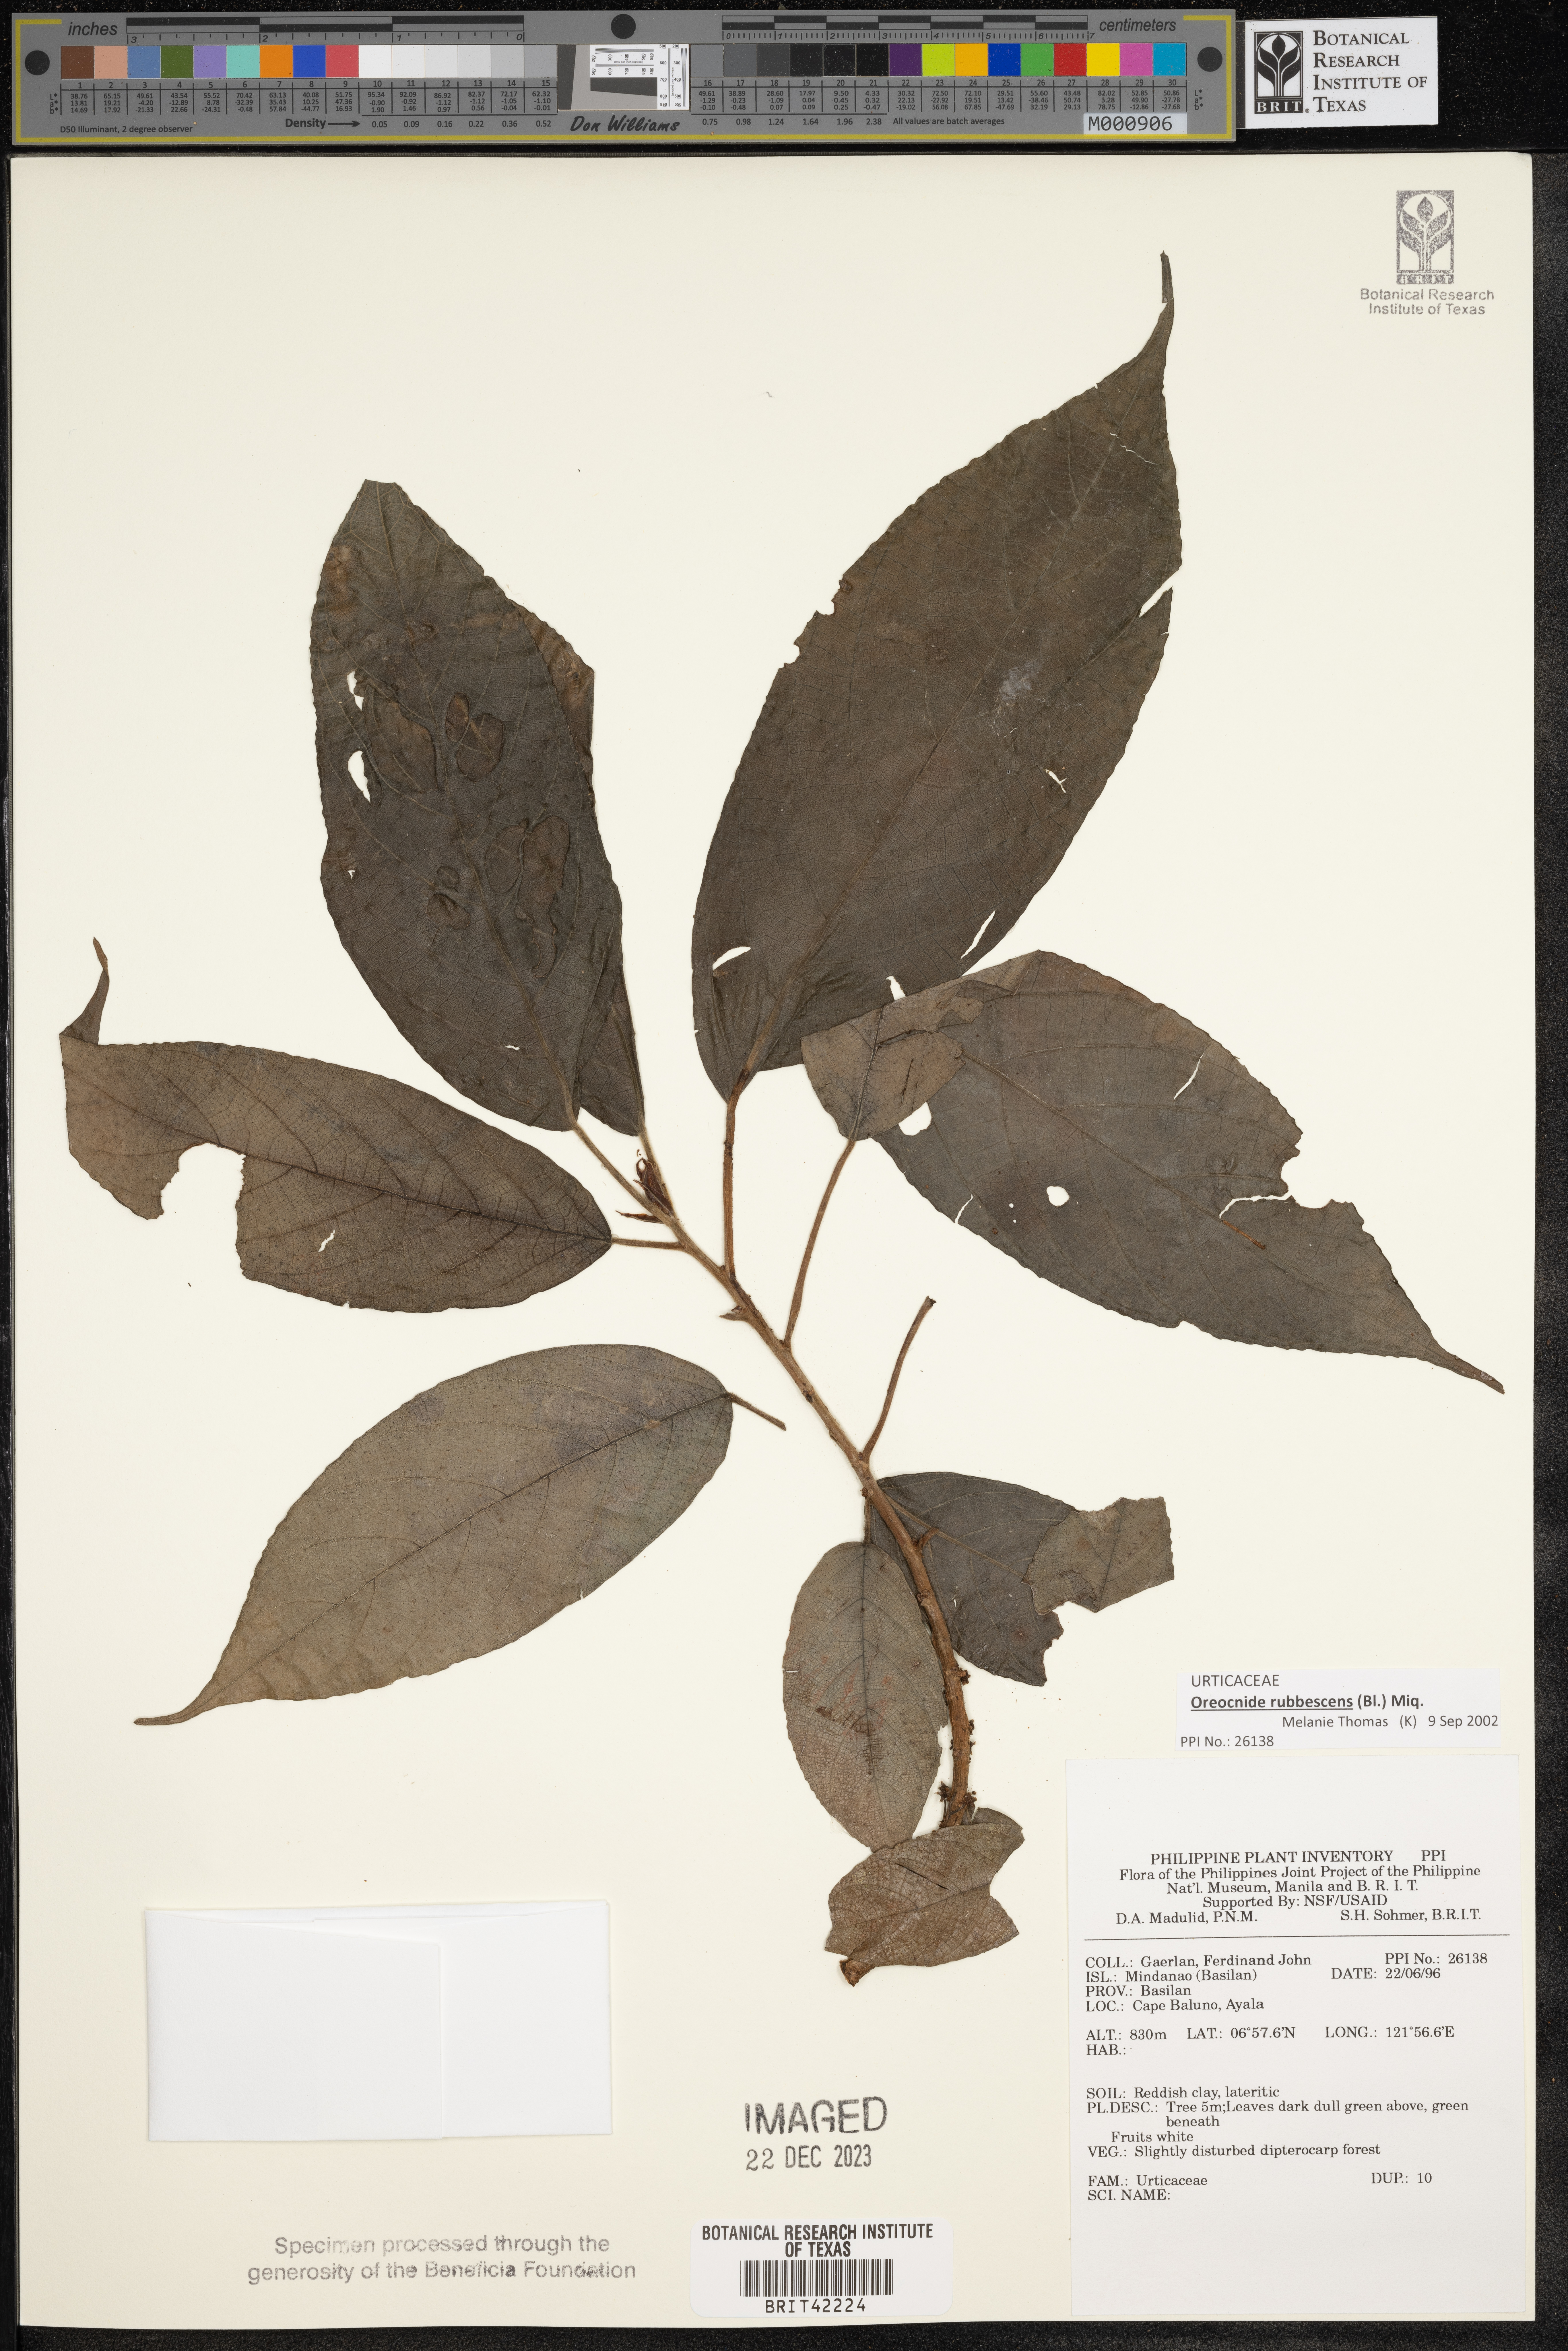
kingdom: Plantae
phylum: Tracheophyta
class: Magnoliopsida
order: Rosales
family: Urticaceae
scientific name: Urticaceae
